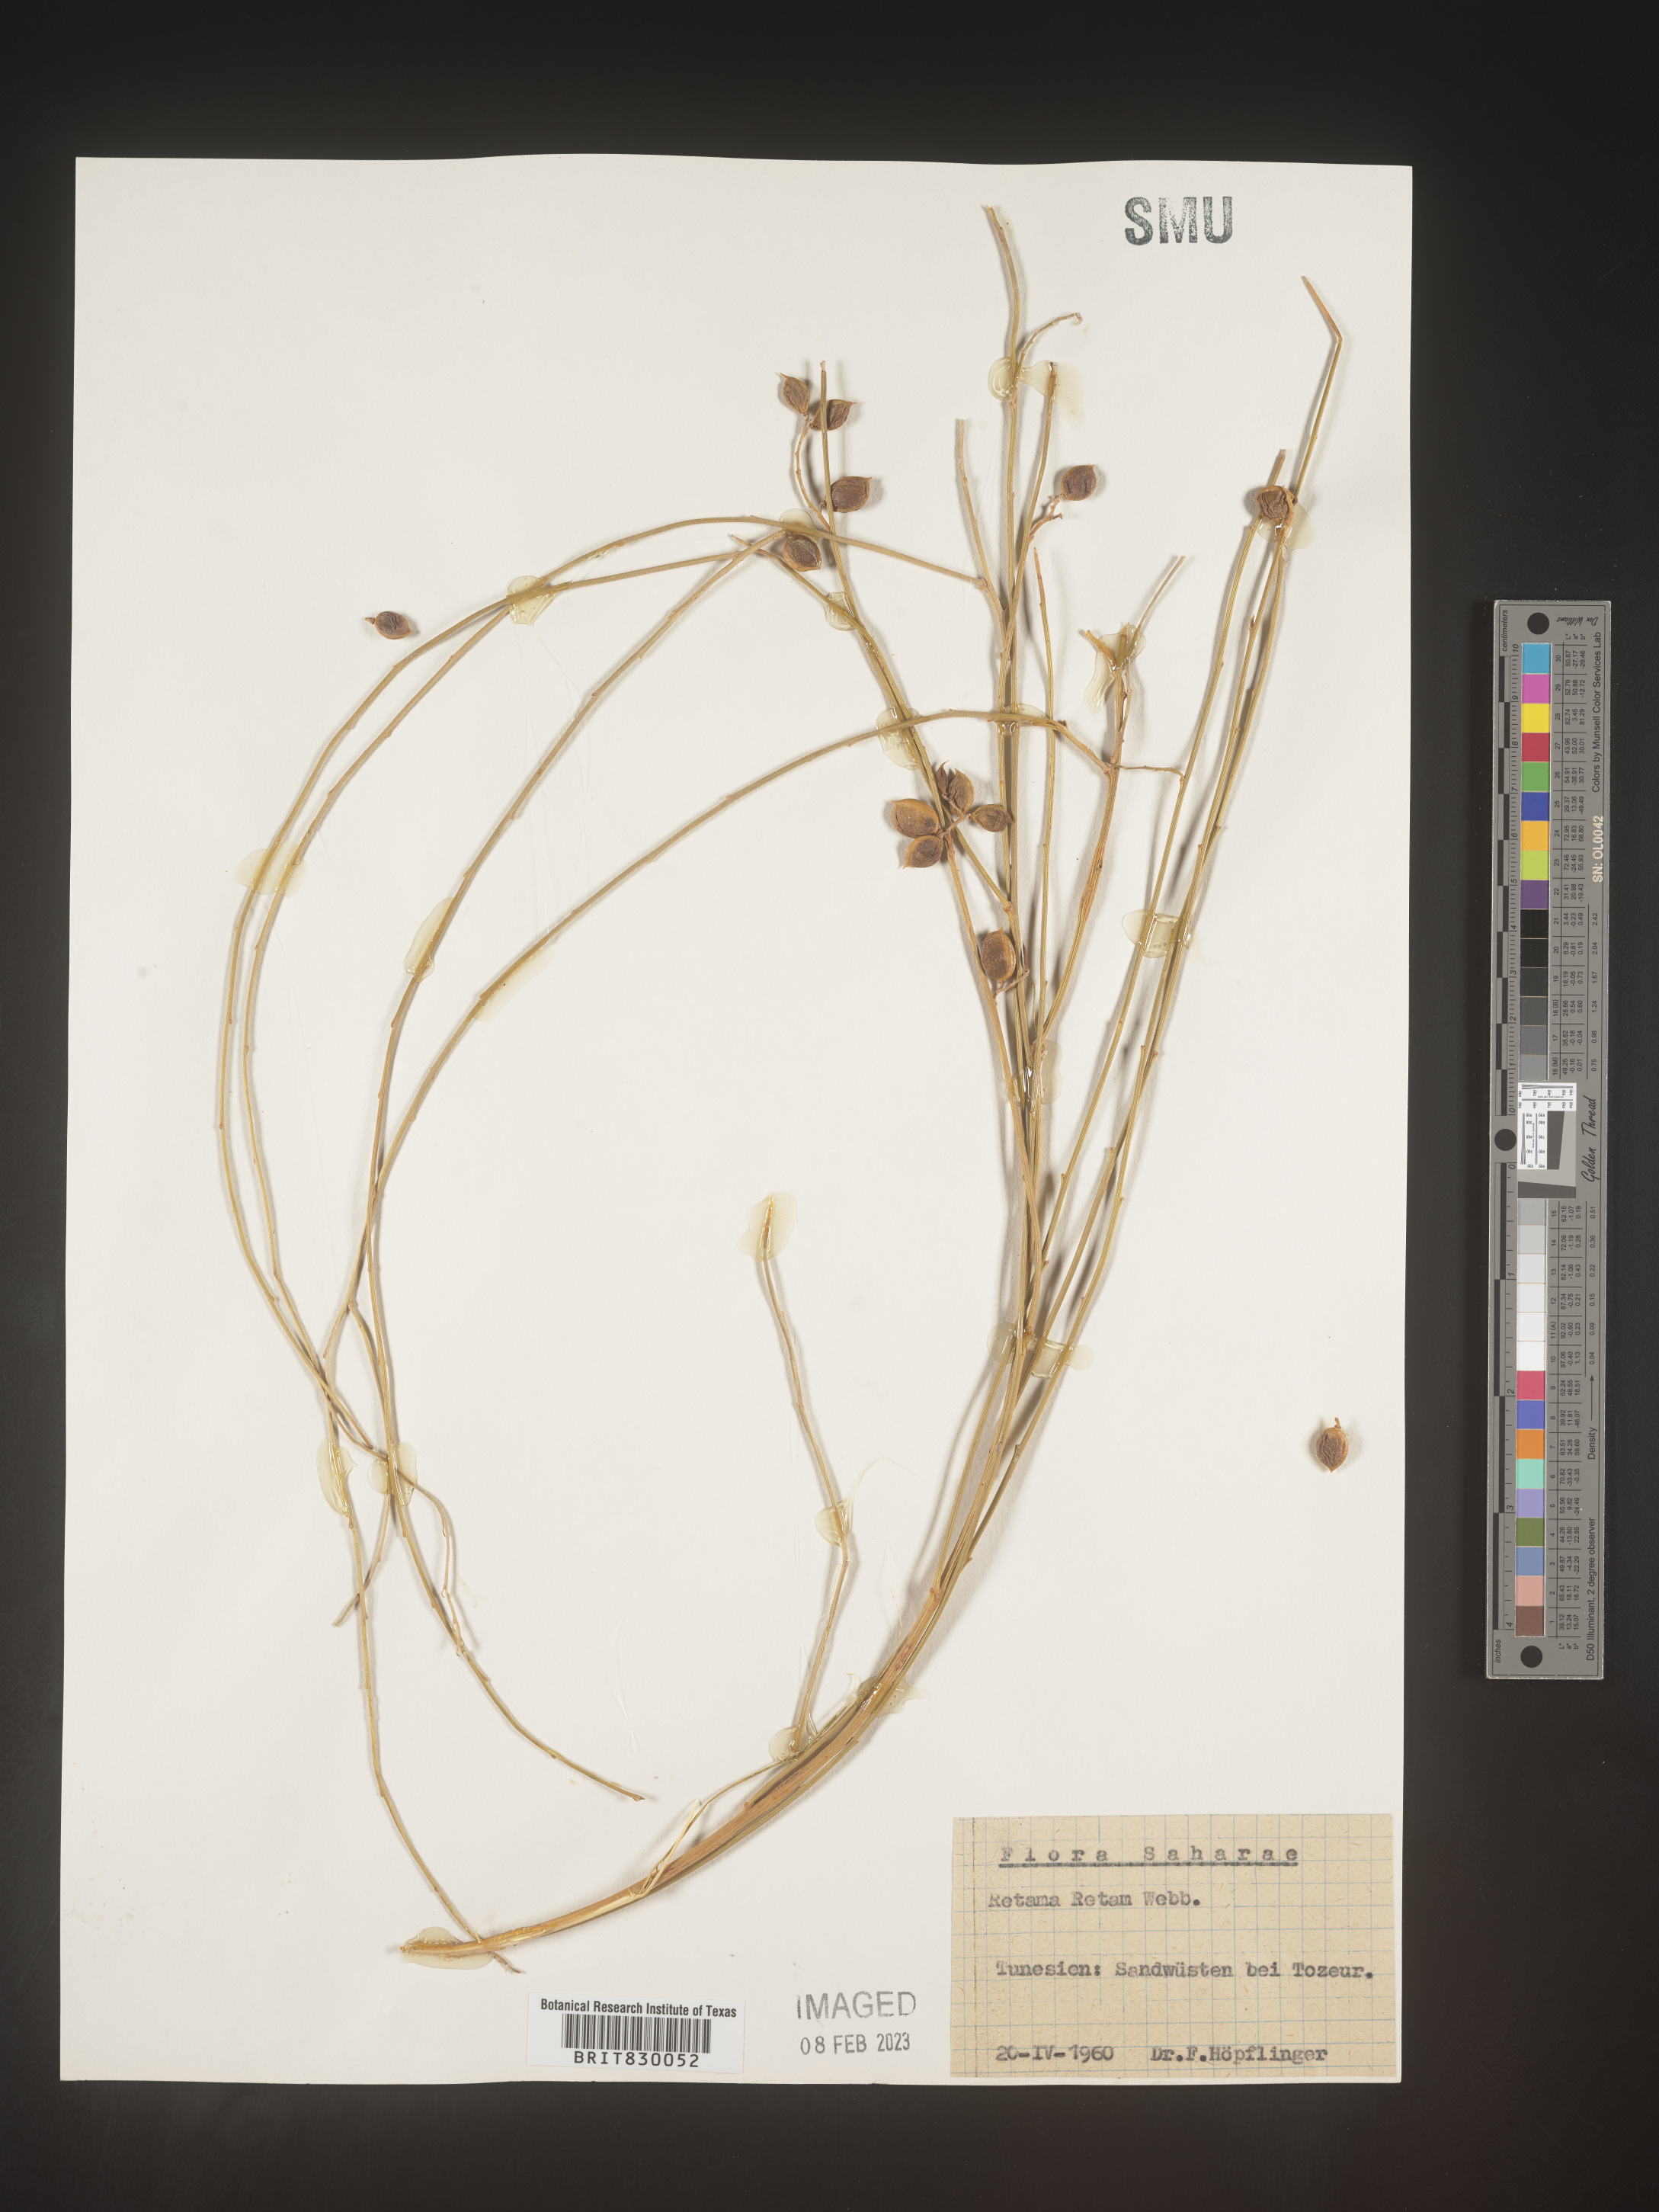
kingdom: Plantae
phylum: Tracheophyta
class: Magnoliopsida
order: Fabales
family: Fabaceae
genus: Retama
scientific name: Retama
